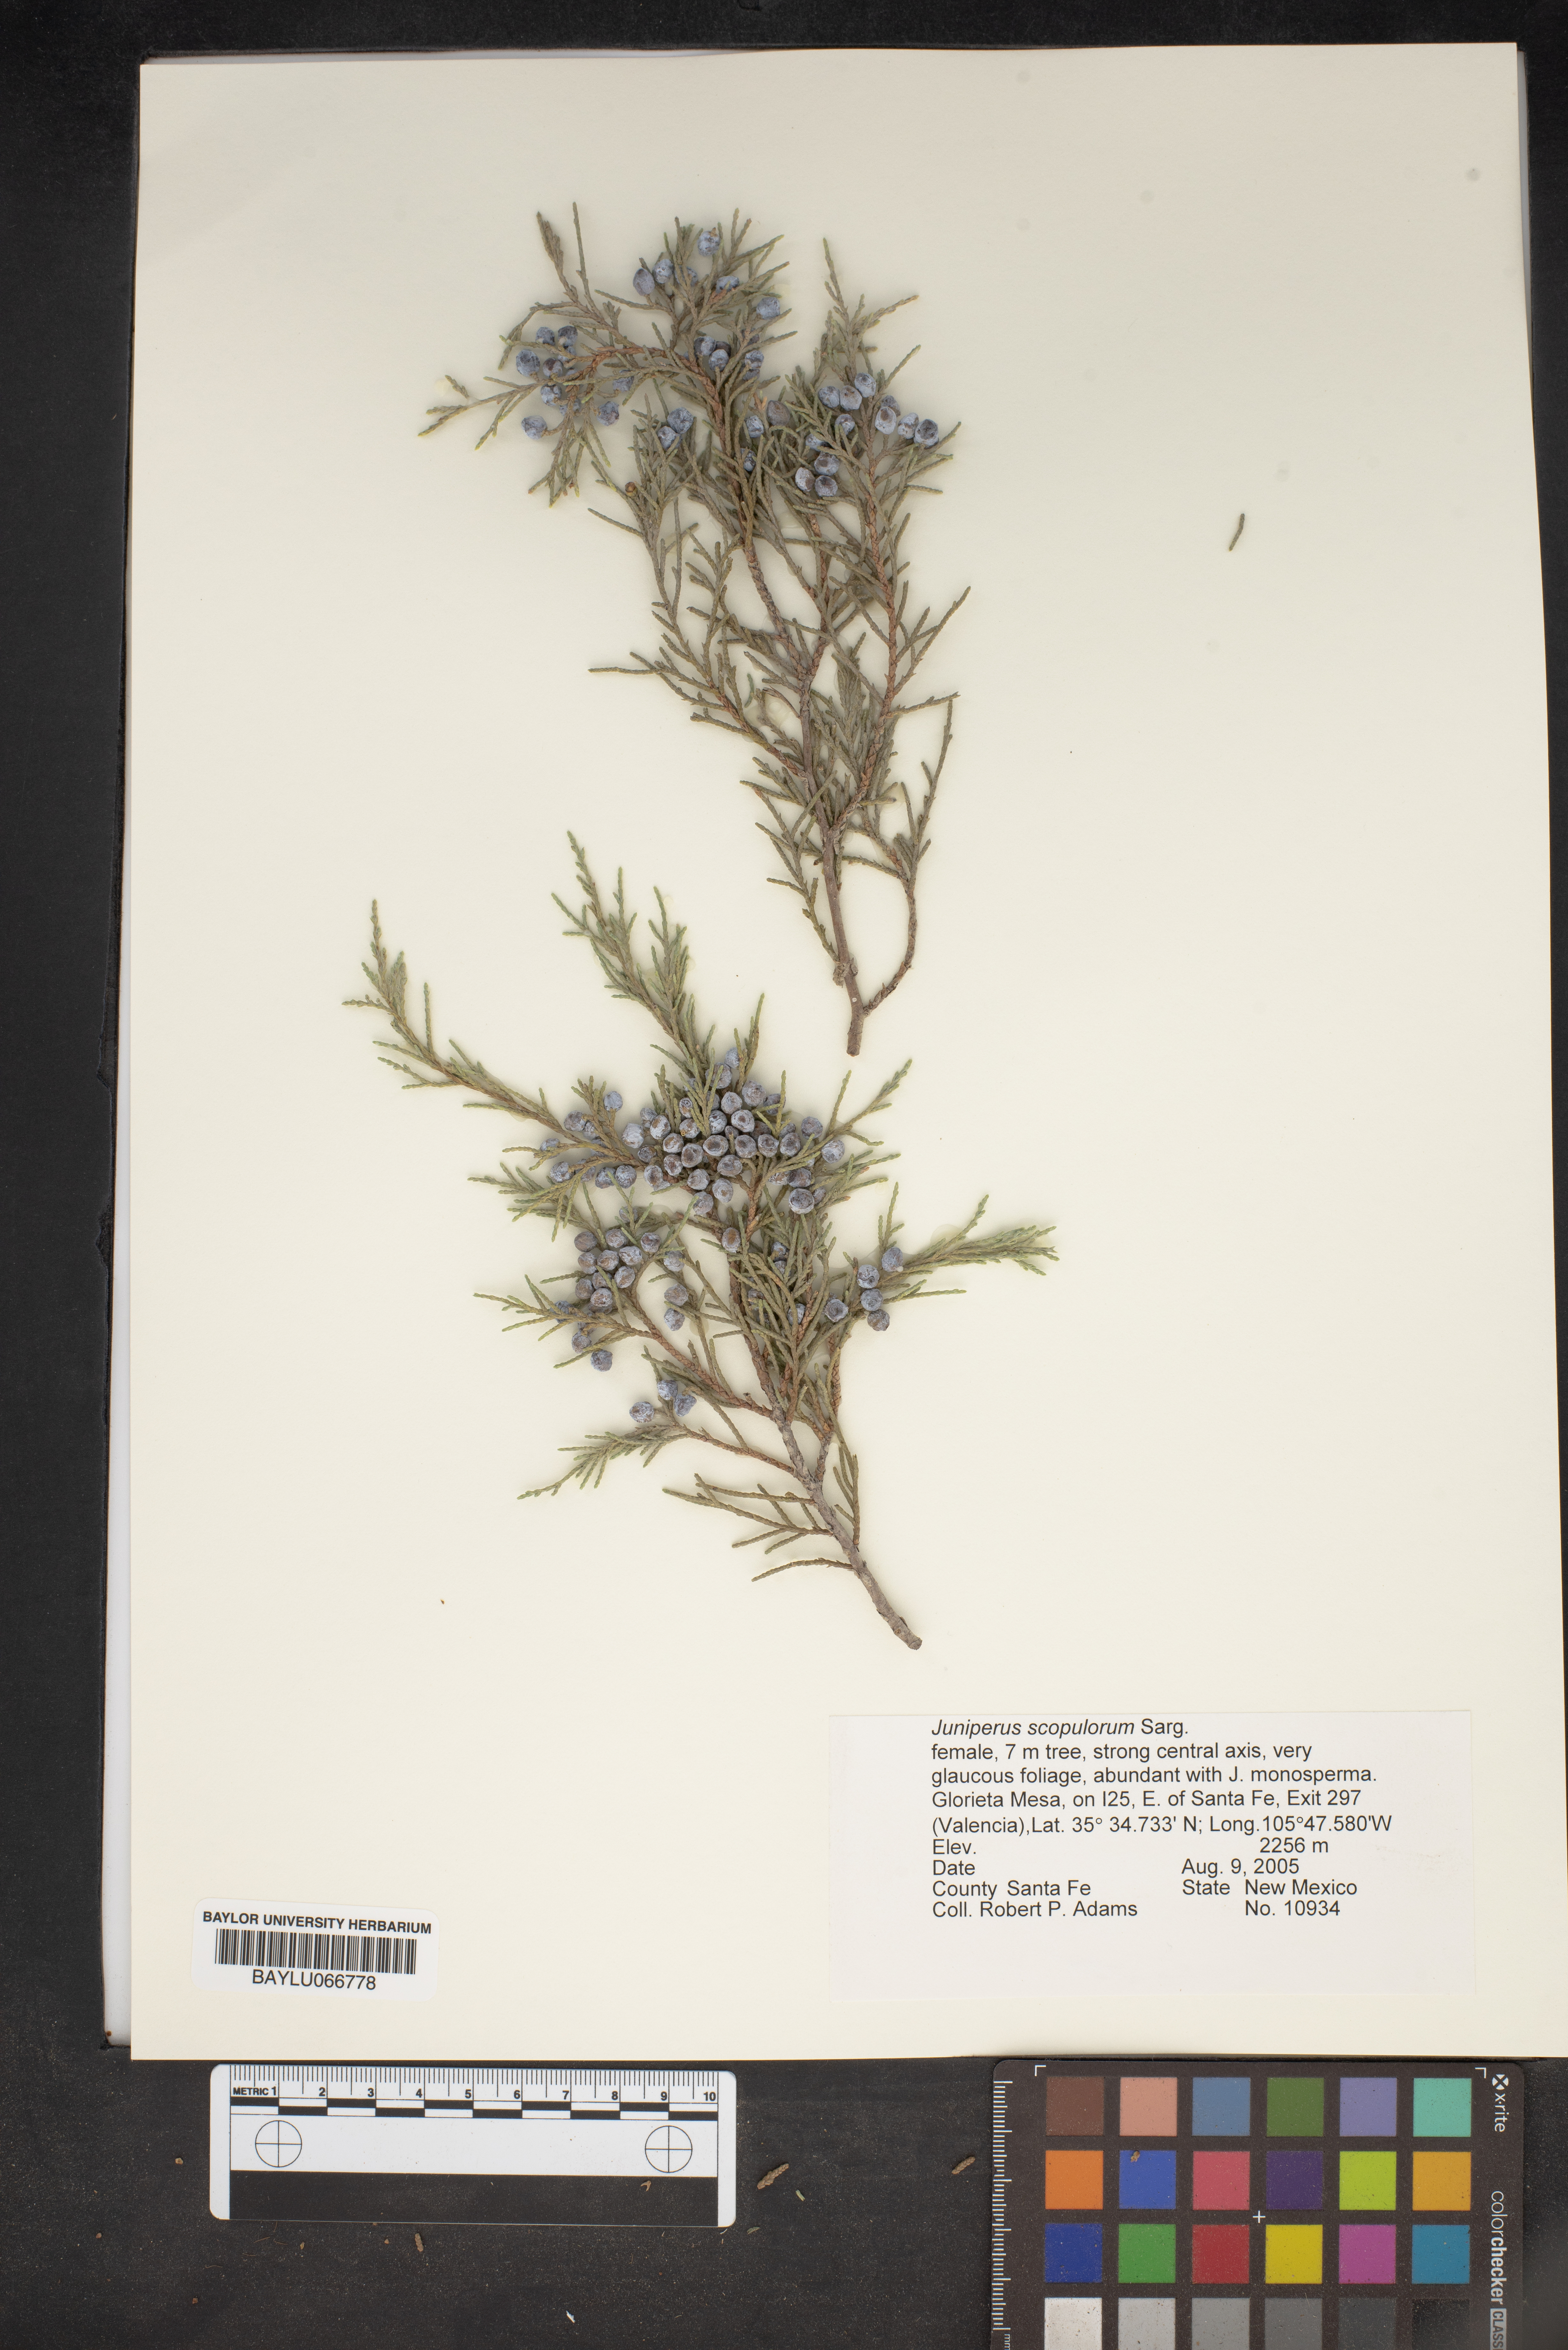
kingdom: Plantae
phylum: Tracheophyta
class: Pinopsida
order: Pinales
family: Cupressaceae
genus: Juniperus
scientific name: Juniperus scopulorum
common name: Rocky mountain juniper
